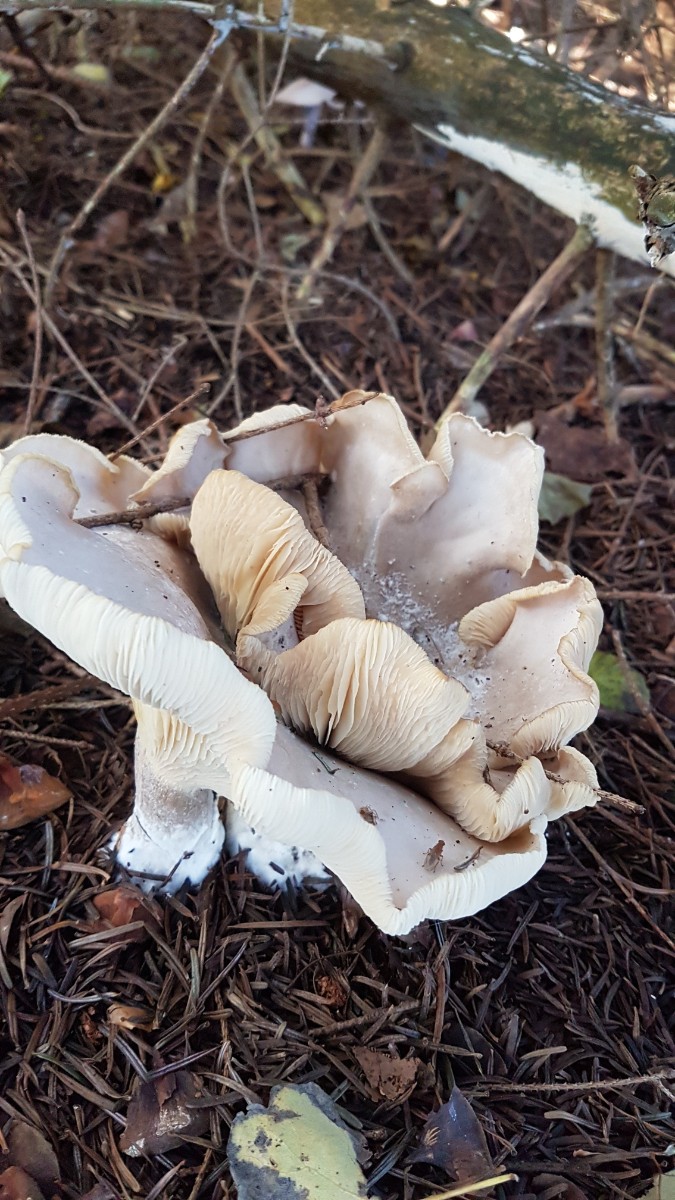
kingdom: Fungi
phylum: Basidiomycota
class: Agaricomycetes
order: Agaricales
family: Tricholomataceae
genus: Clitocybe
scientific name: Clitocybe nebularis
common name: tåge-tragthat
